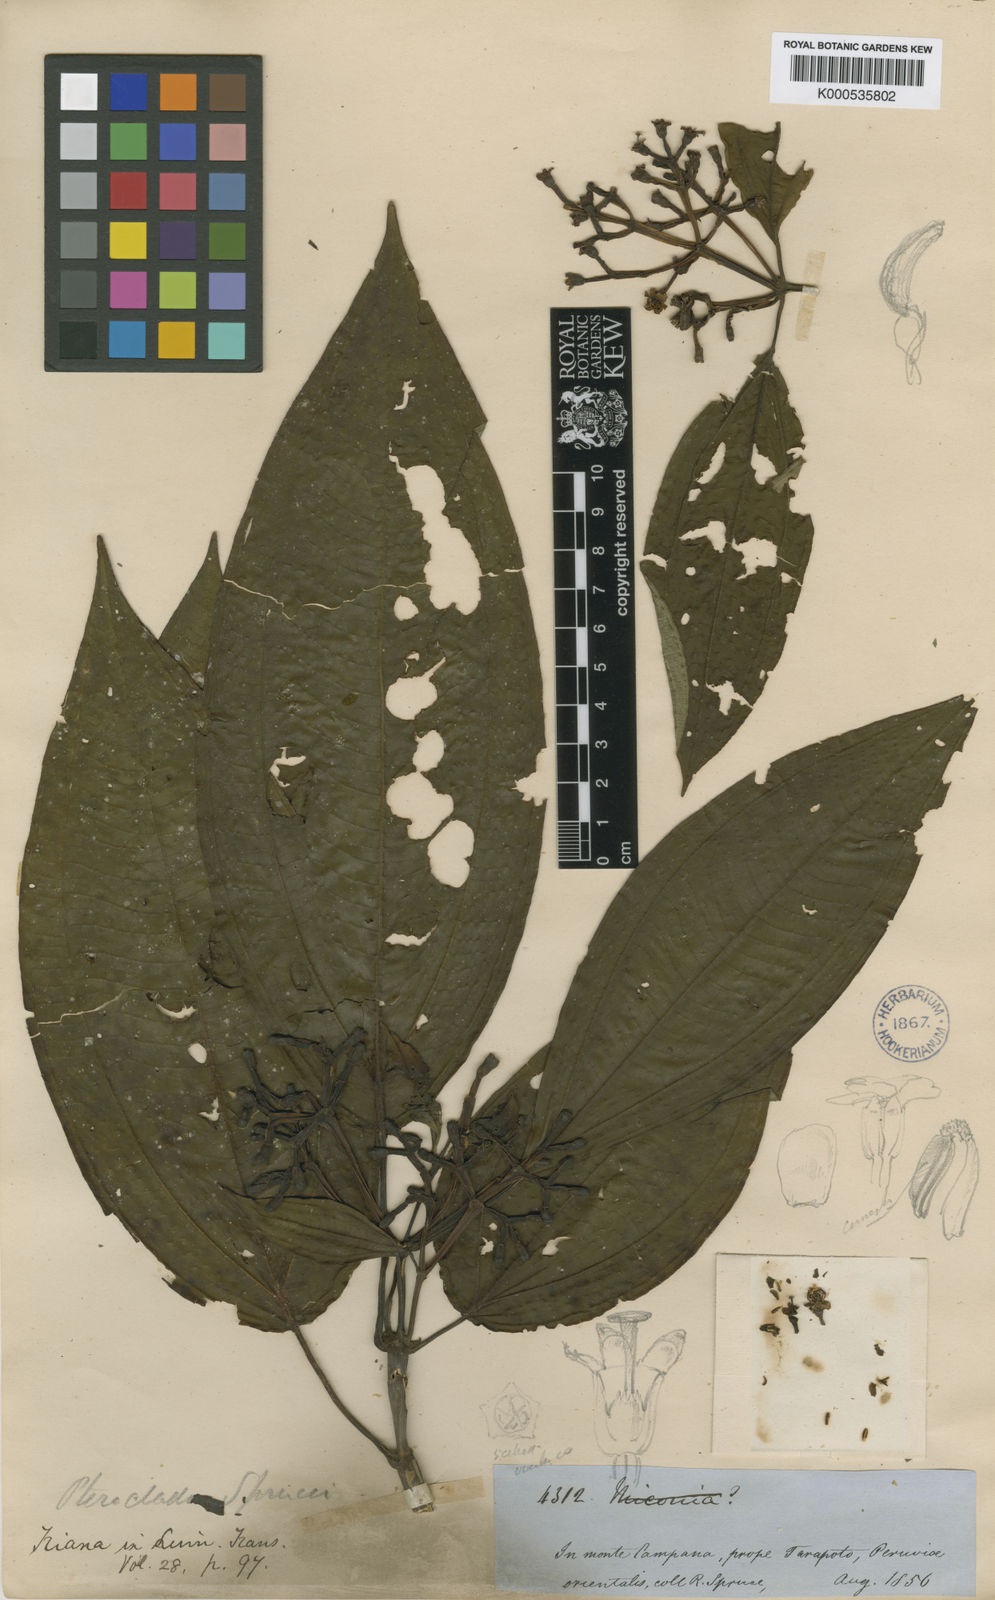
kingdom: Plantae
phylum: Tracheophyta
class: Magnoliopsida
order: Myrtales
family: Melastomataceae
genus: Miconia
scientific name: Miconia bailloniana
